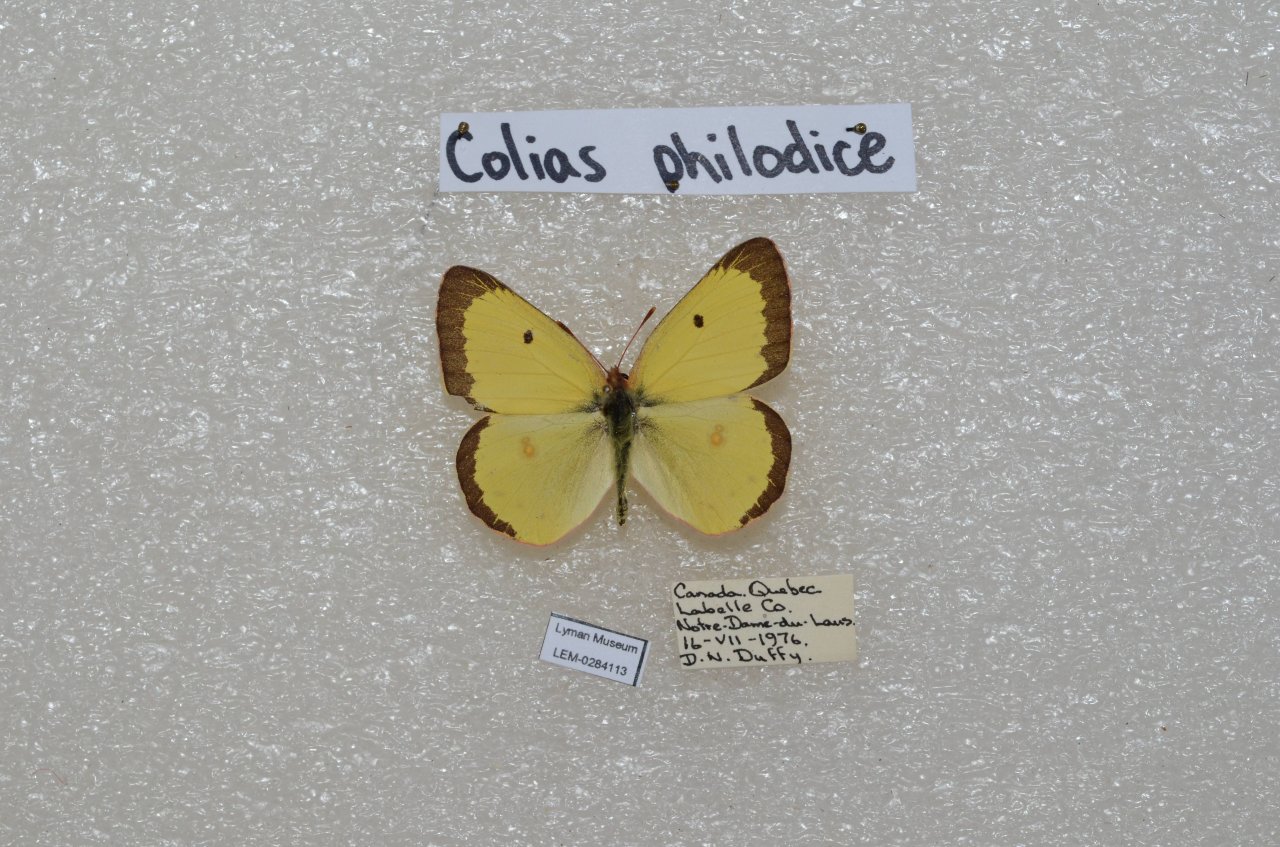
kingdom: Animalia
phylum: Arthropoda
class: Insecta
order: Lepidoptera
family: Pieridae
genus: Colias
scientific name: Colias philodice
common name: Clouded Sulphur
